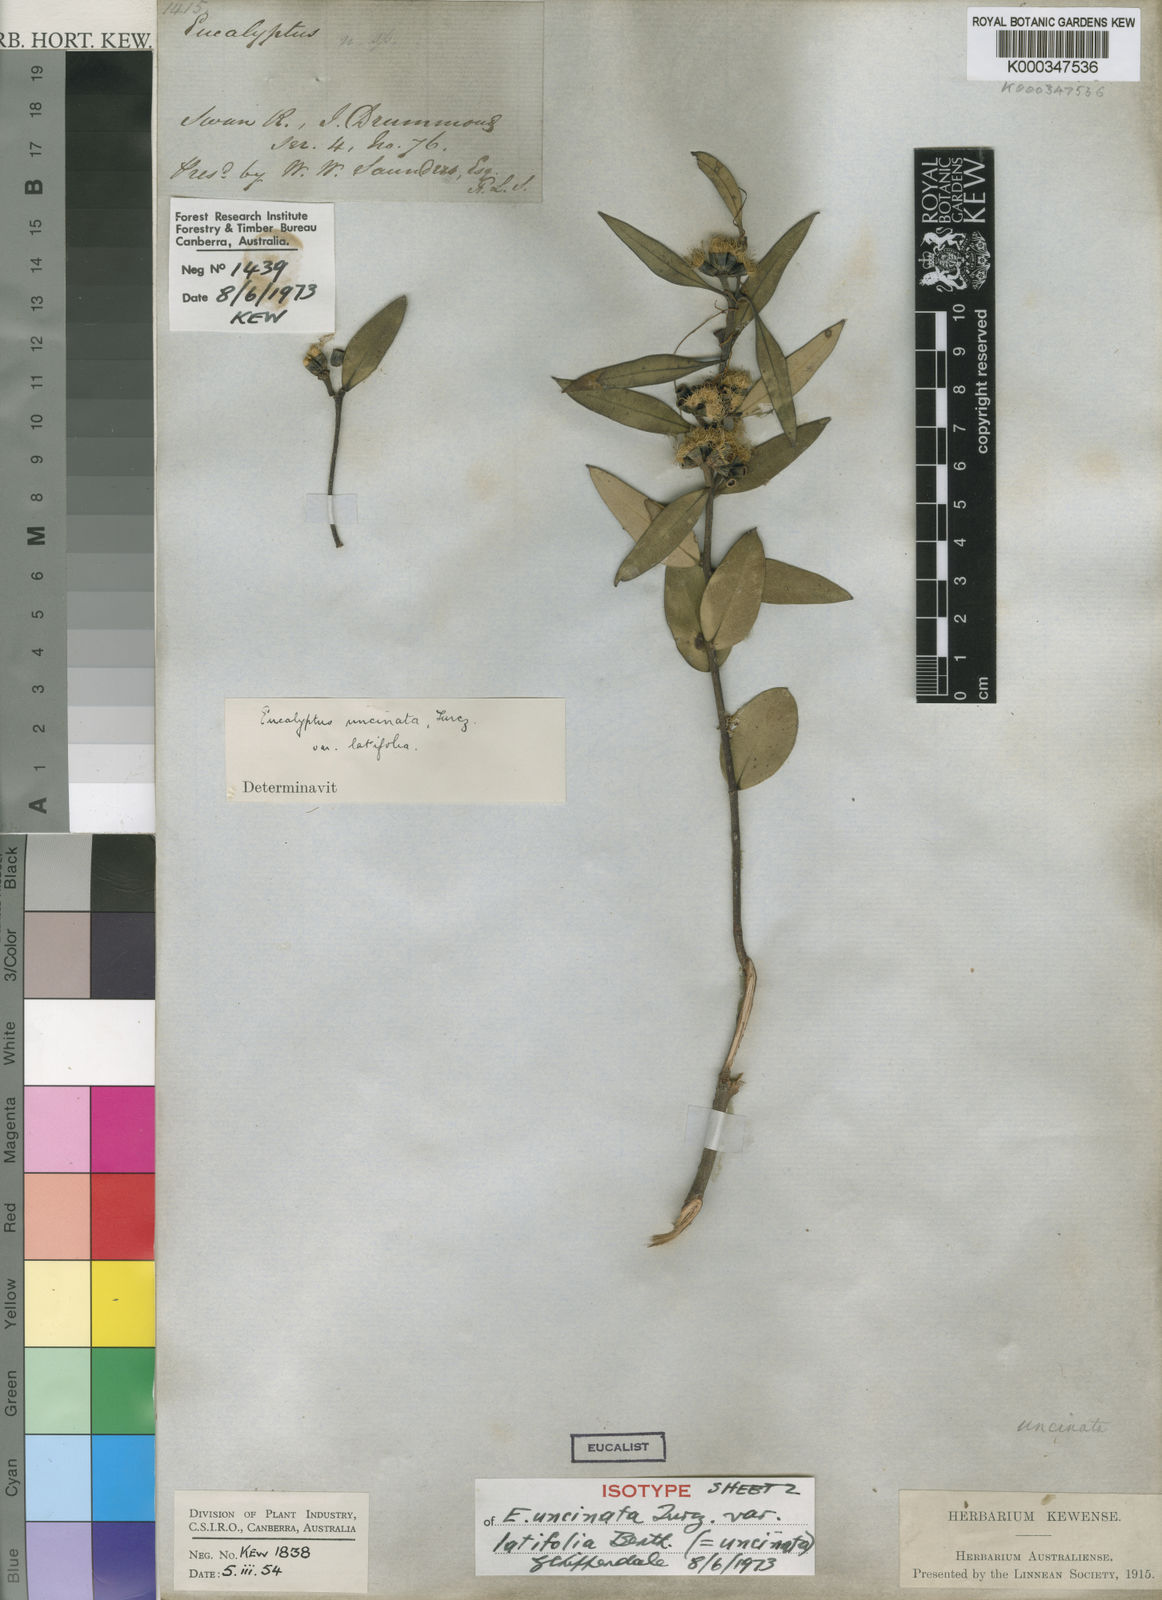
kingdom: Plantae
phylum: Tracheophyta
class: Magnoliopsida
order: Myrtales
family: Myrtaceae
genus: Eucalyptus
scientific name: Eucalyptus uncinata
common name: Hooked-leaved mallee
